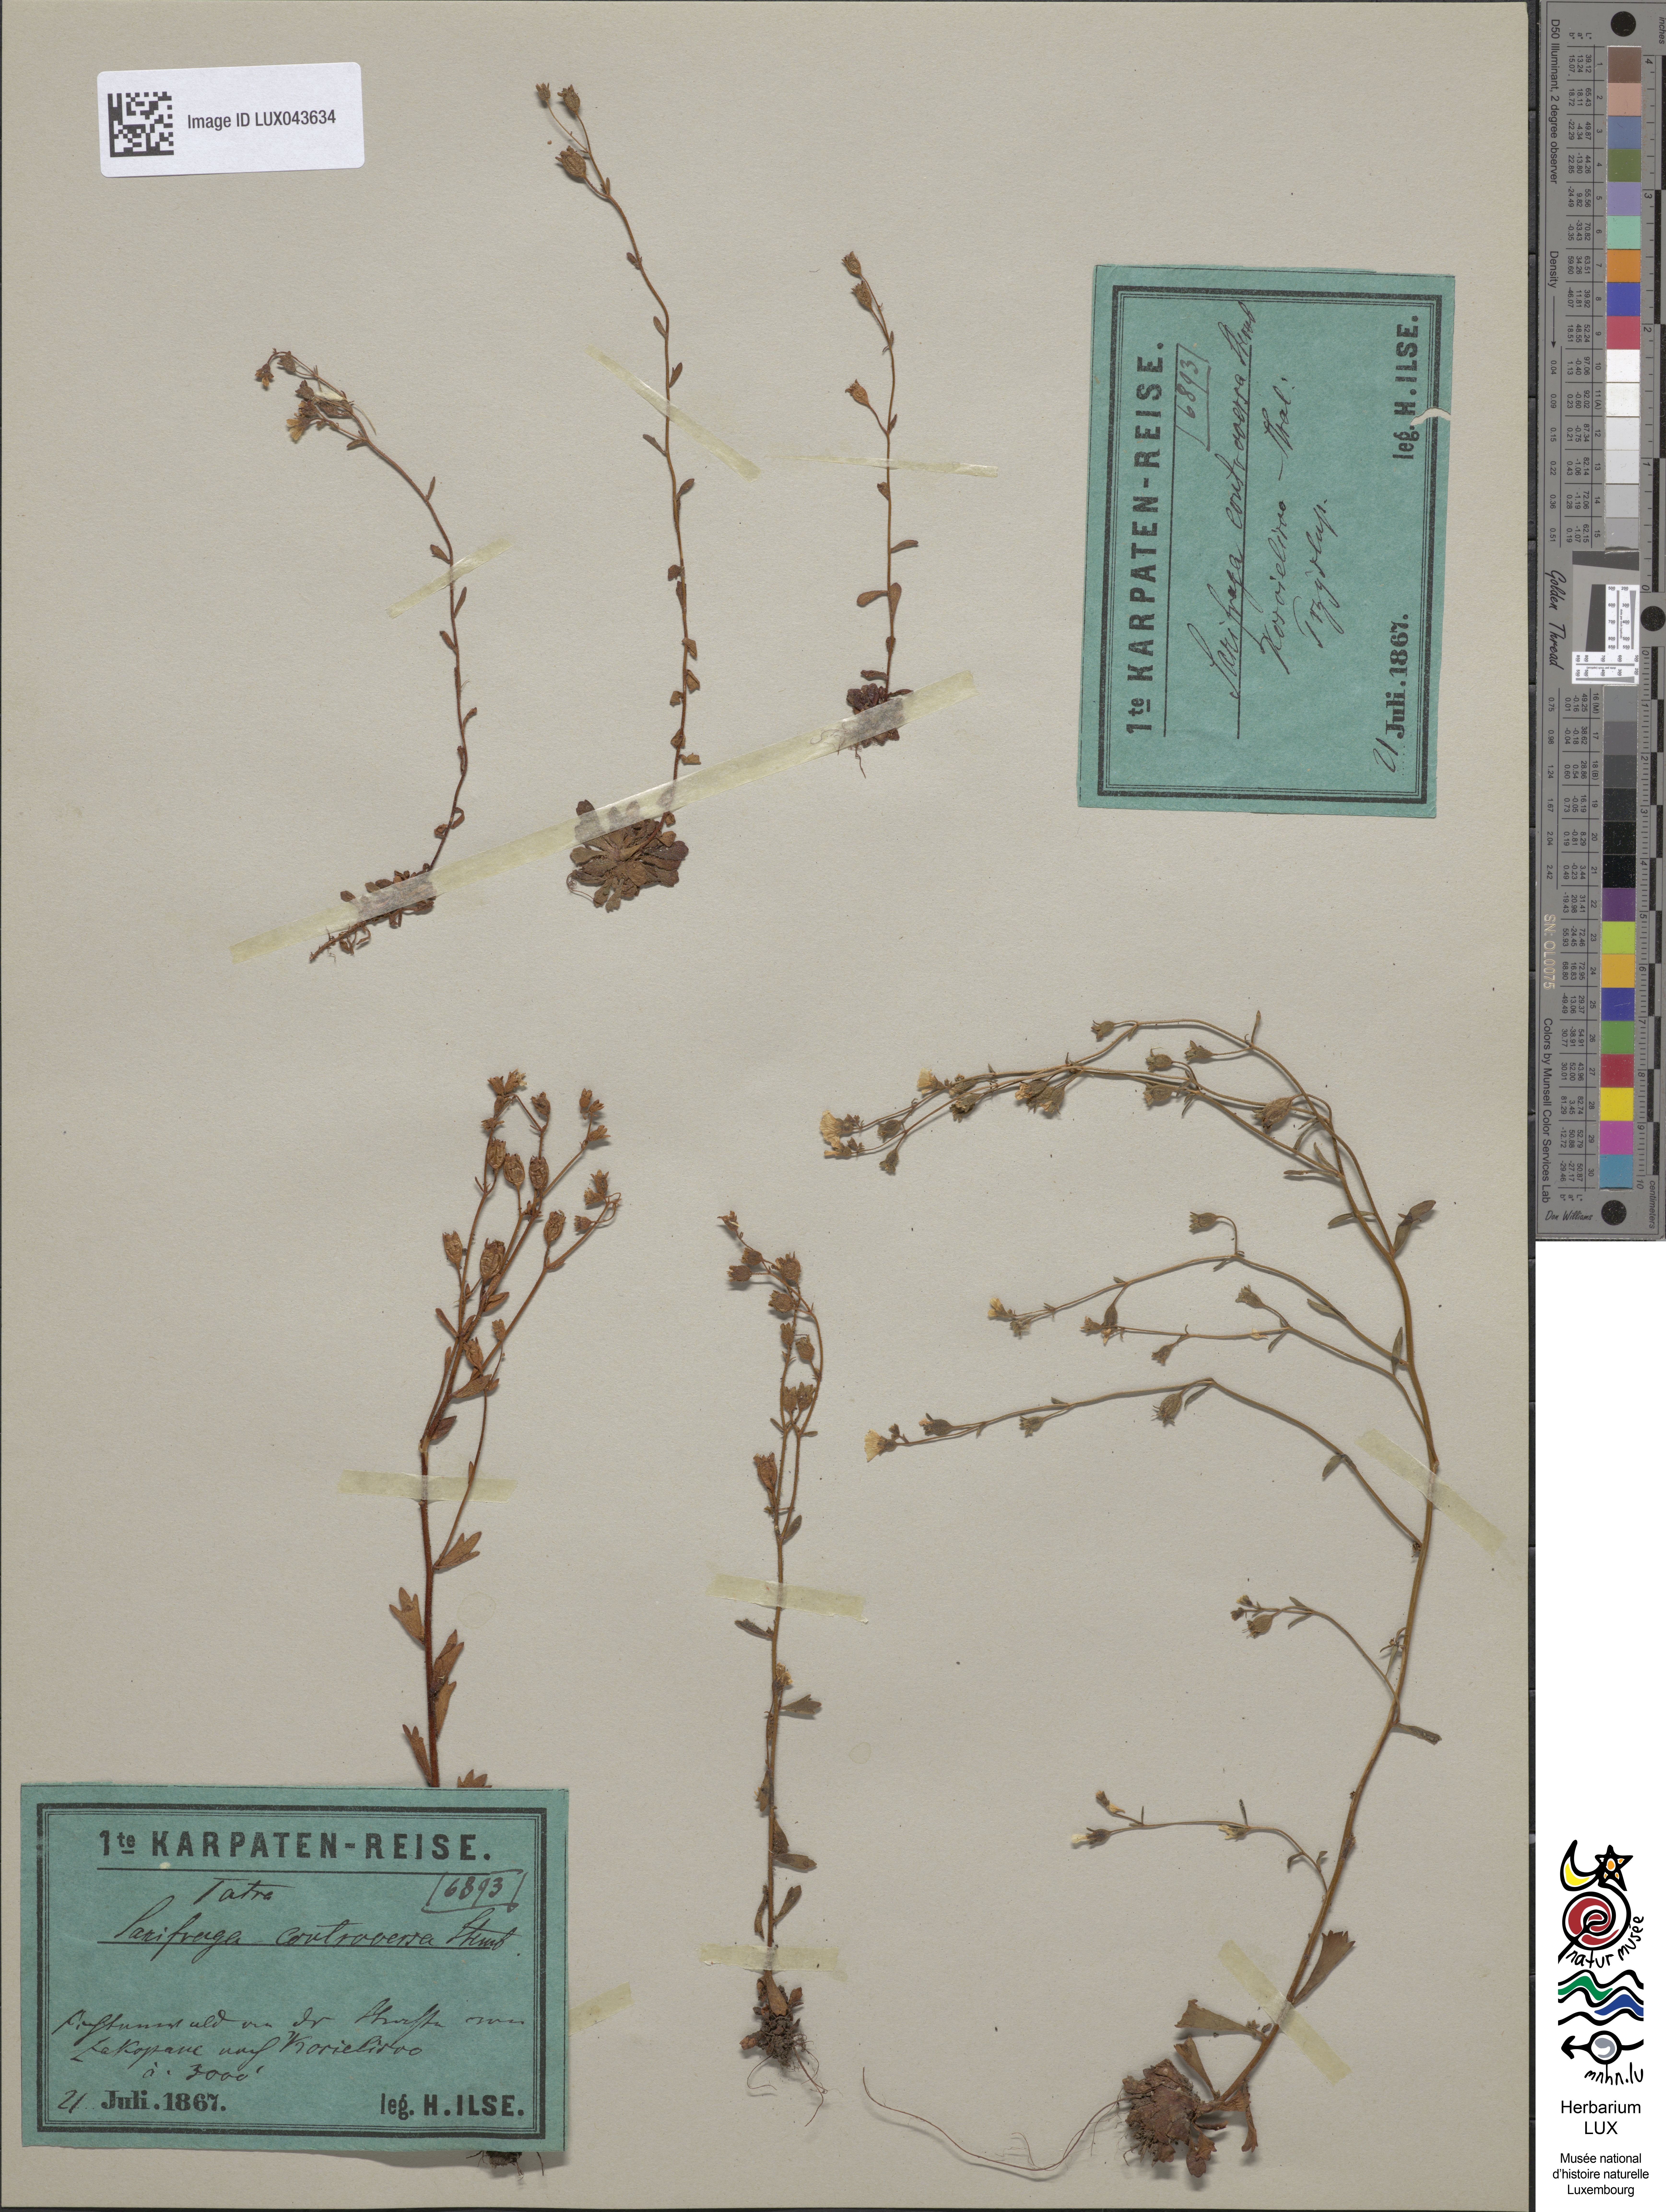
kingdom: Plantae
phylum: Tracheophyta
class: Magnoliopsida
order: Saxifragales
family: Saxifragaceae
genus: Saxifraga
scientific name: Saxifraga adscendens
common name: Ascending saxifrage
